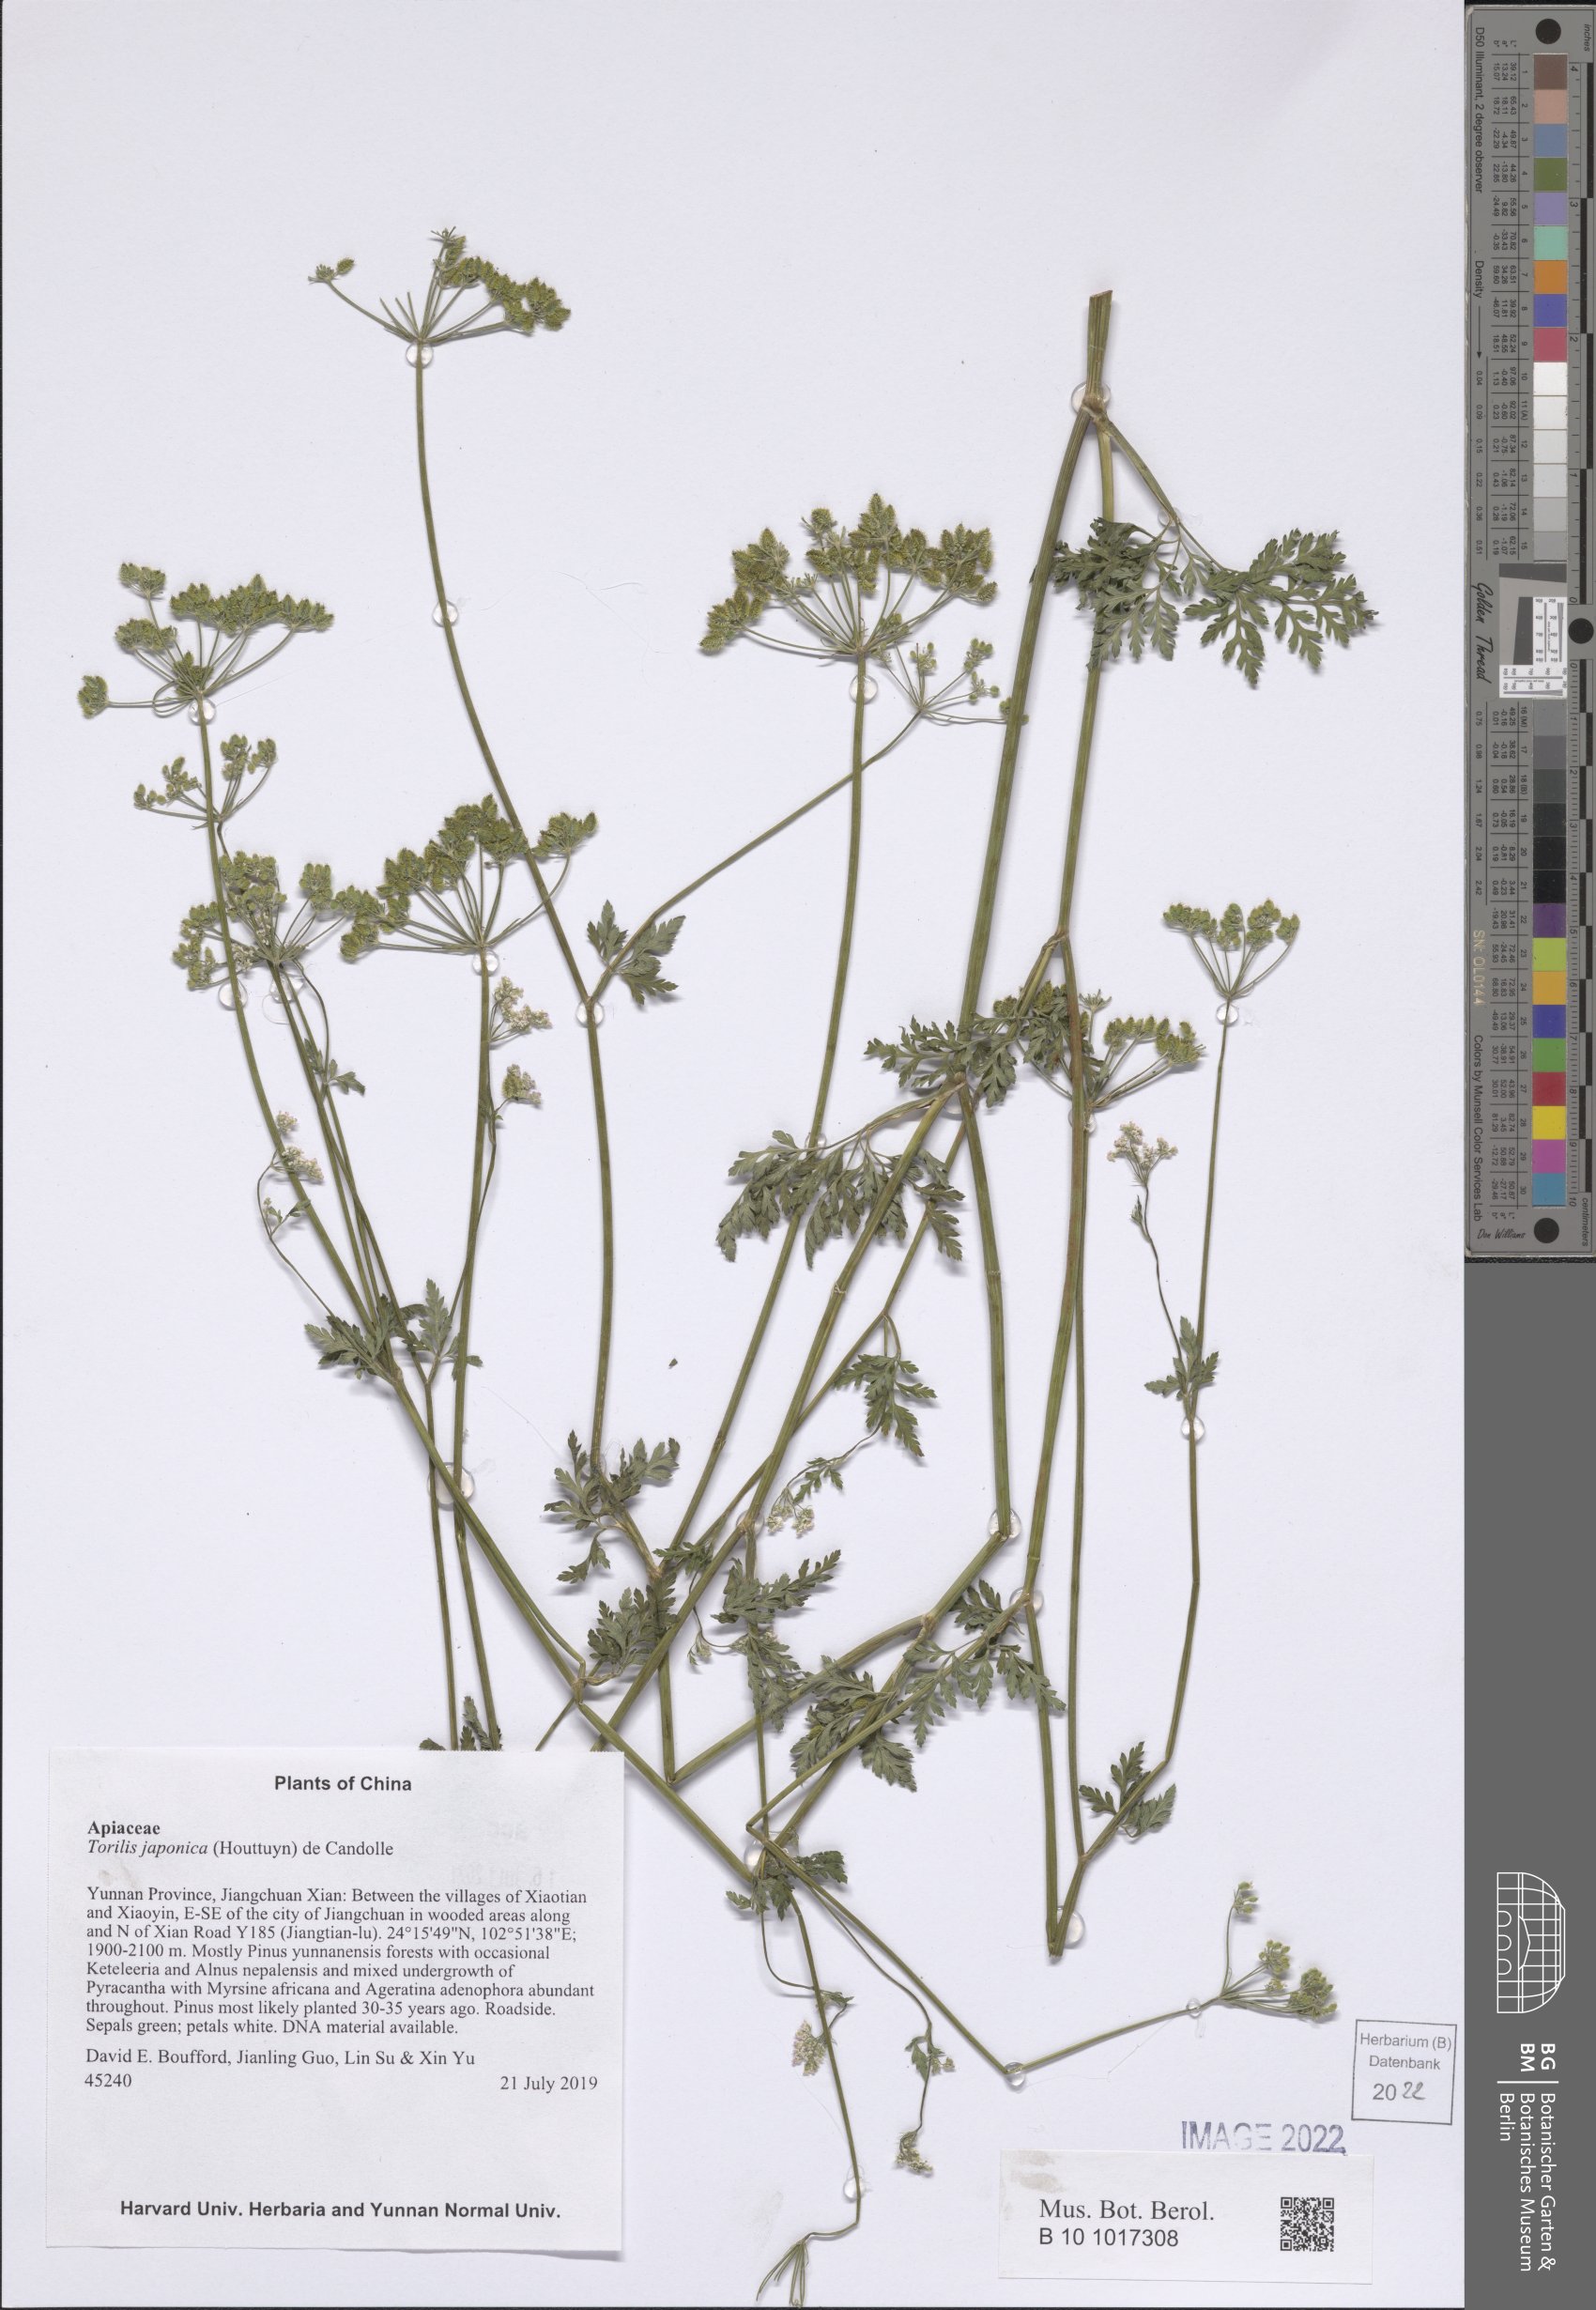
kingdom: Plantae
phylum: Tracheophyta
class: Magnoliopsida
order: Apiales
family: Apiaceae
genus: Torilis
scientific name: Torilis japonica
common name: Upright hedge-parsley
